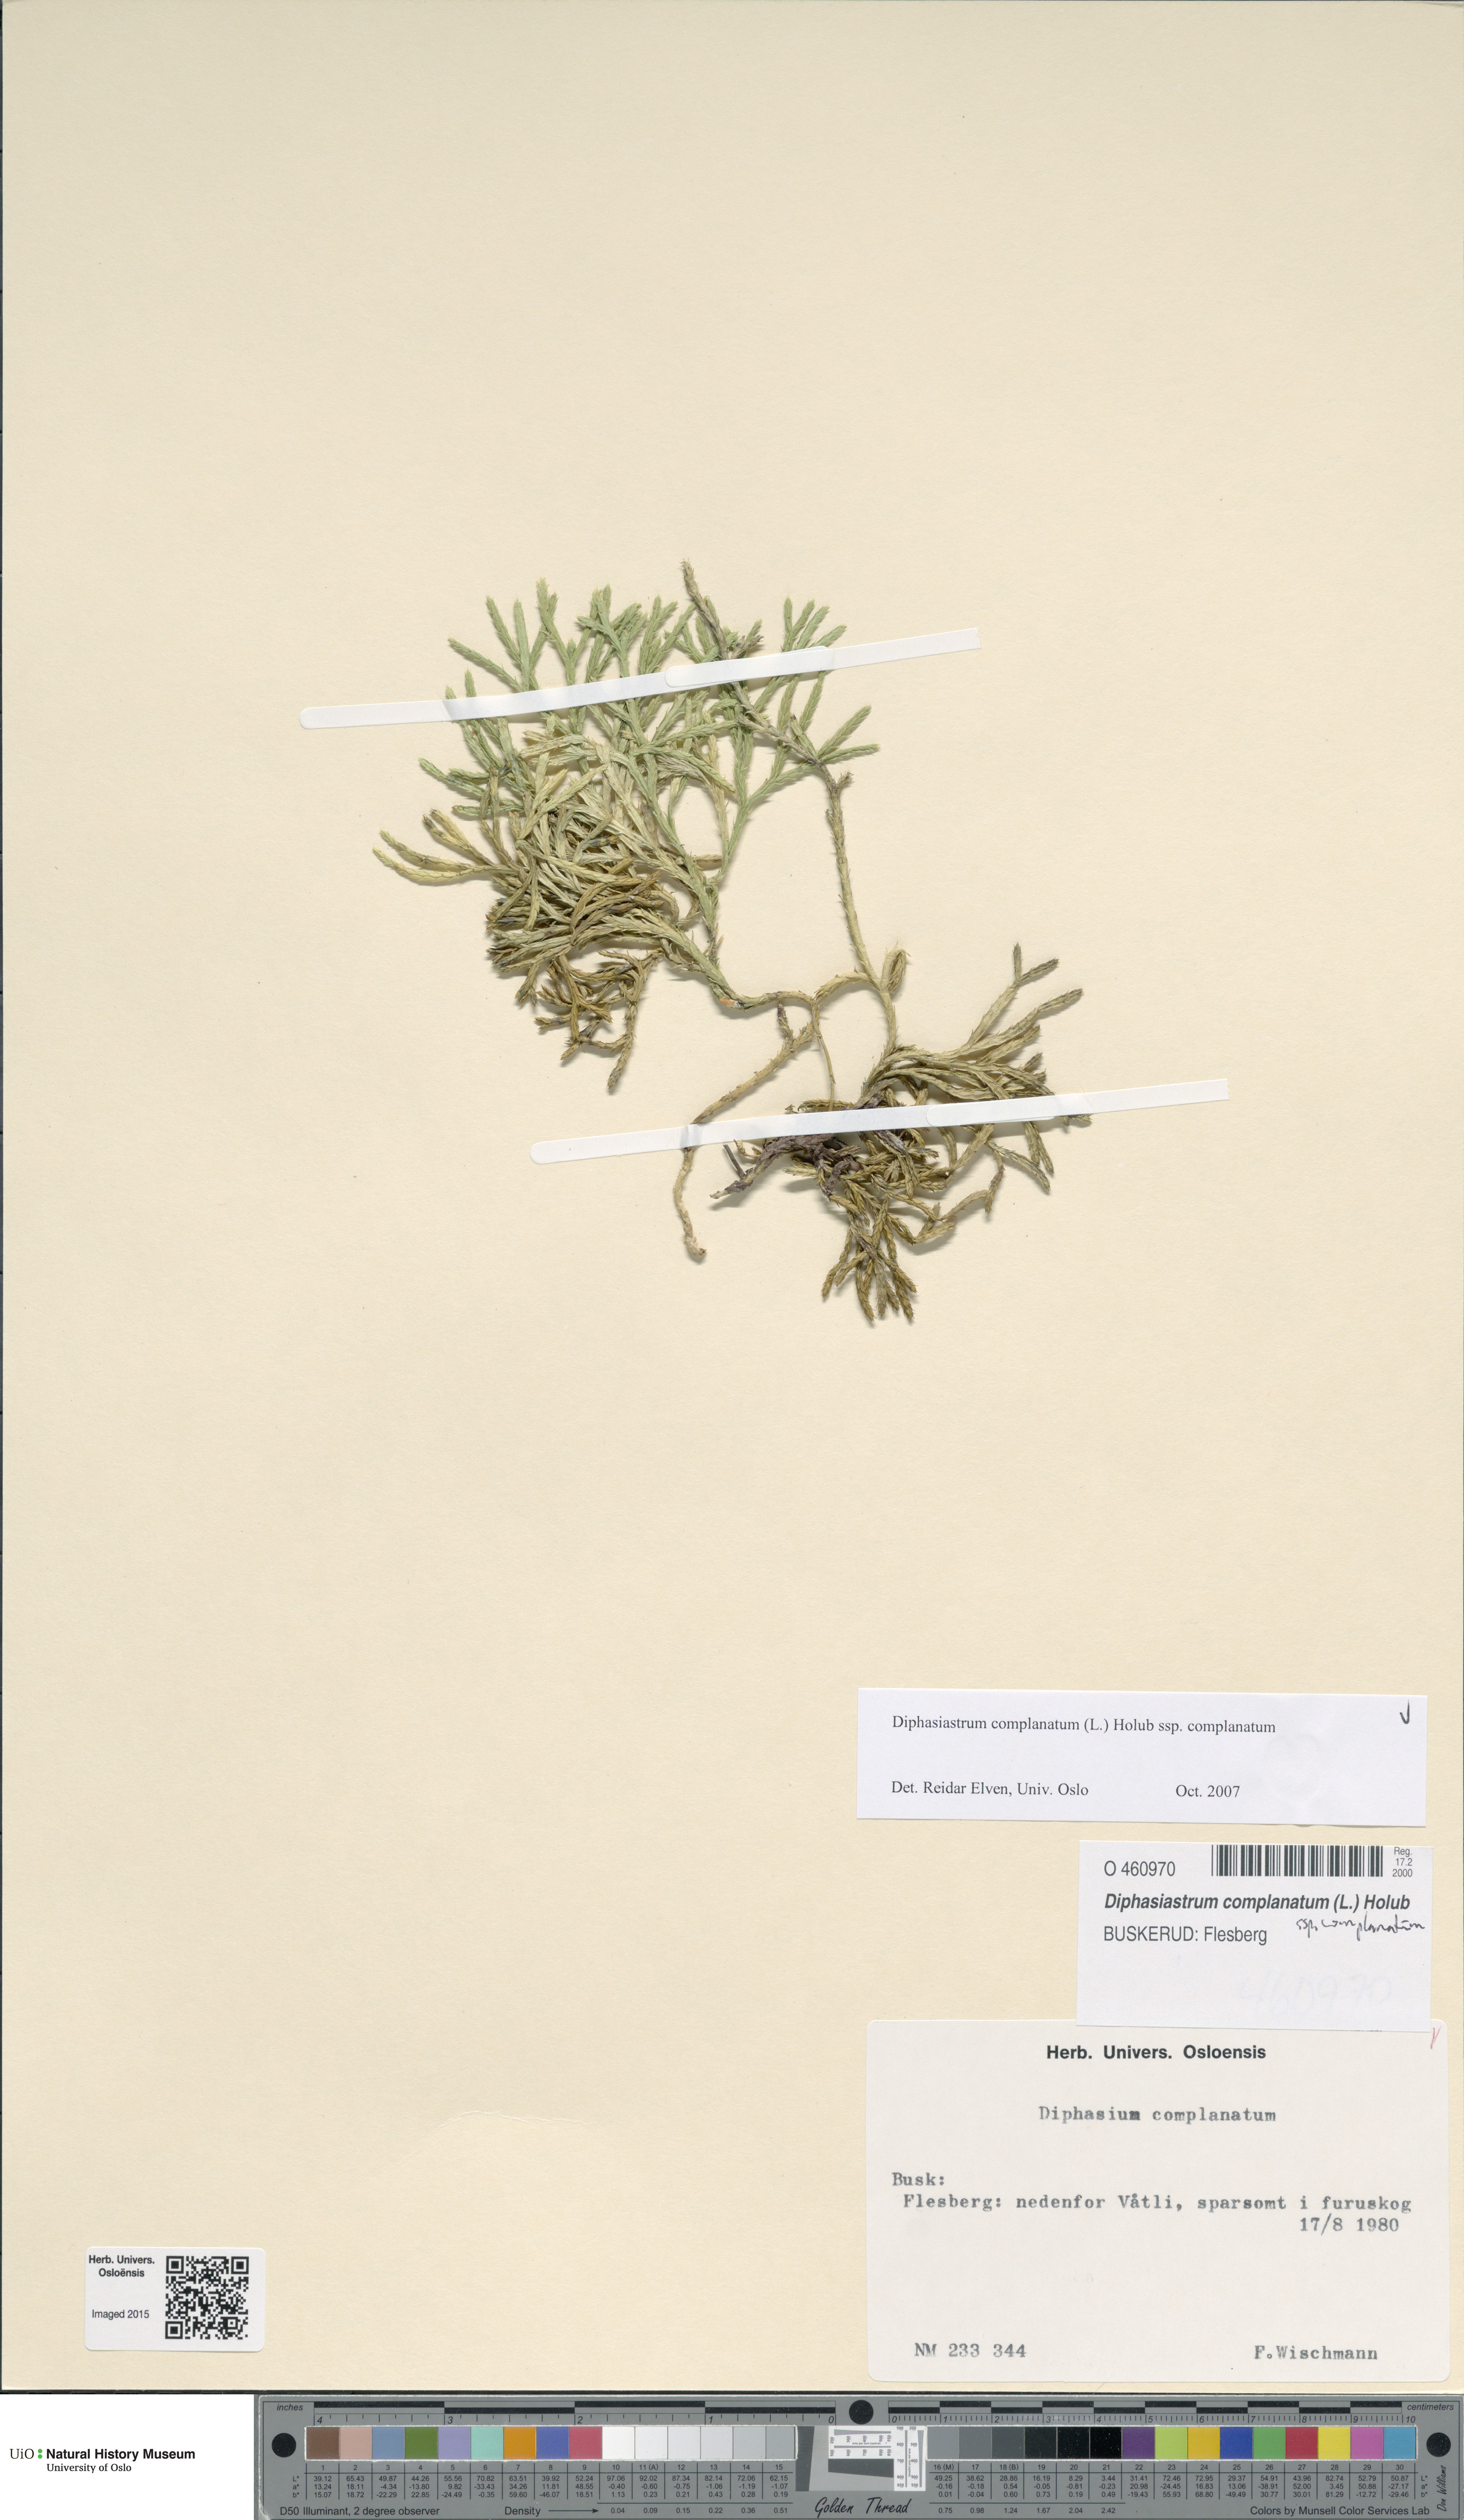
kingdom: Plantae
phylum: Tracheophyta
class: Lycopodiopsida
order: Lycopodiales
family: Lycopodiaceae
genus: Diphasiastrum
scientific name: Diphasiastrum complanatum
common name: Northern running-pine
